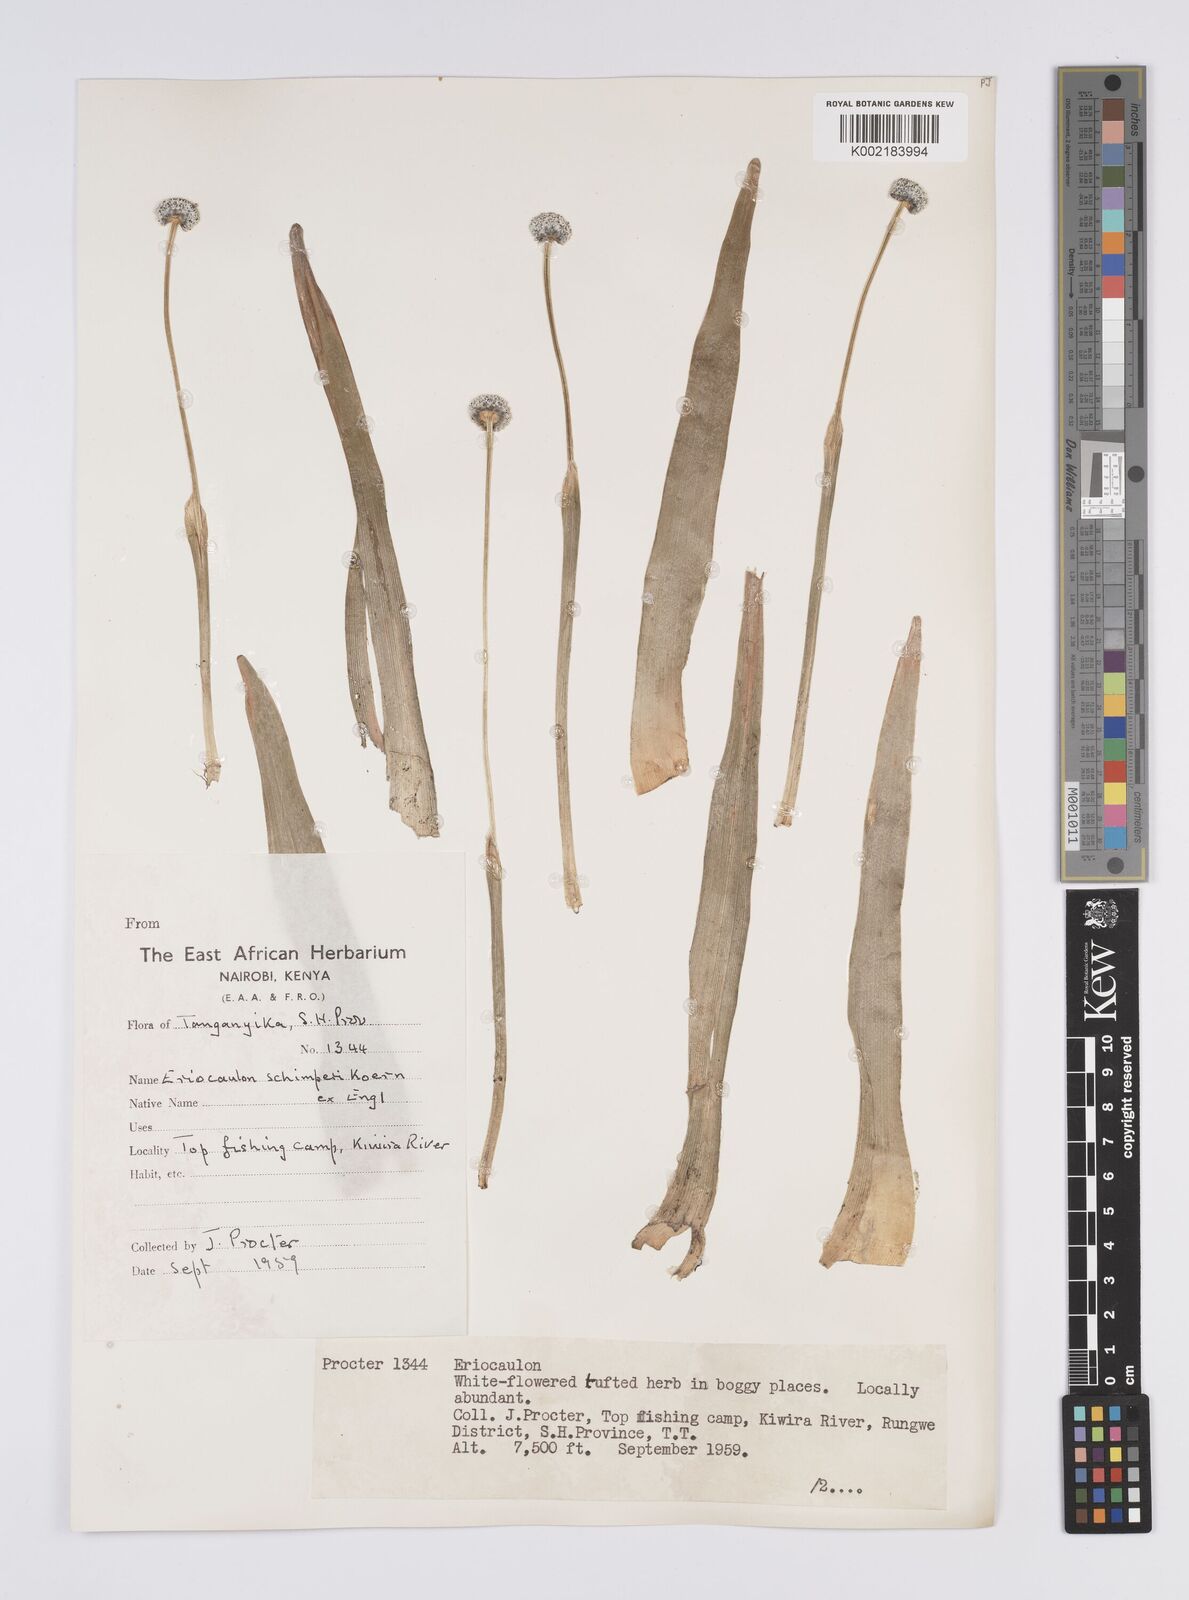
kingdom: Plantae
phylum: Tracheophyta
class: Liliopsida
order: Poales
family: Eriocaulaceae
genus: Eriocaulon
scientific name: Eriocaulon schimperi
